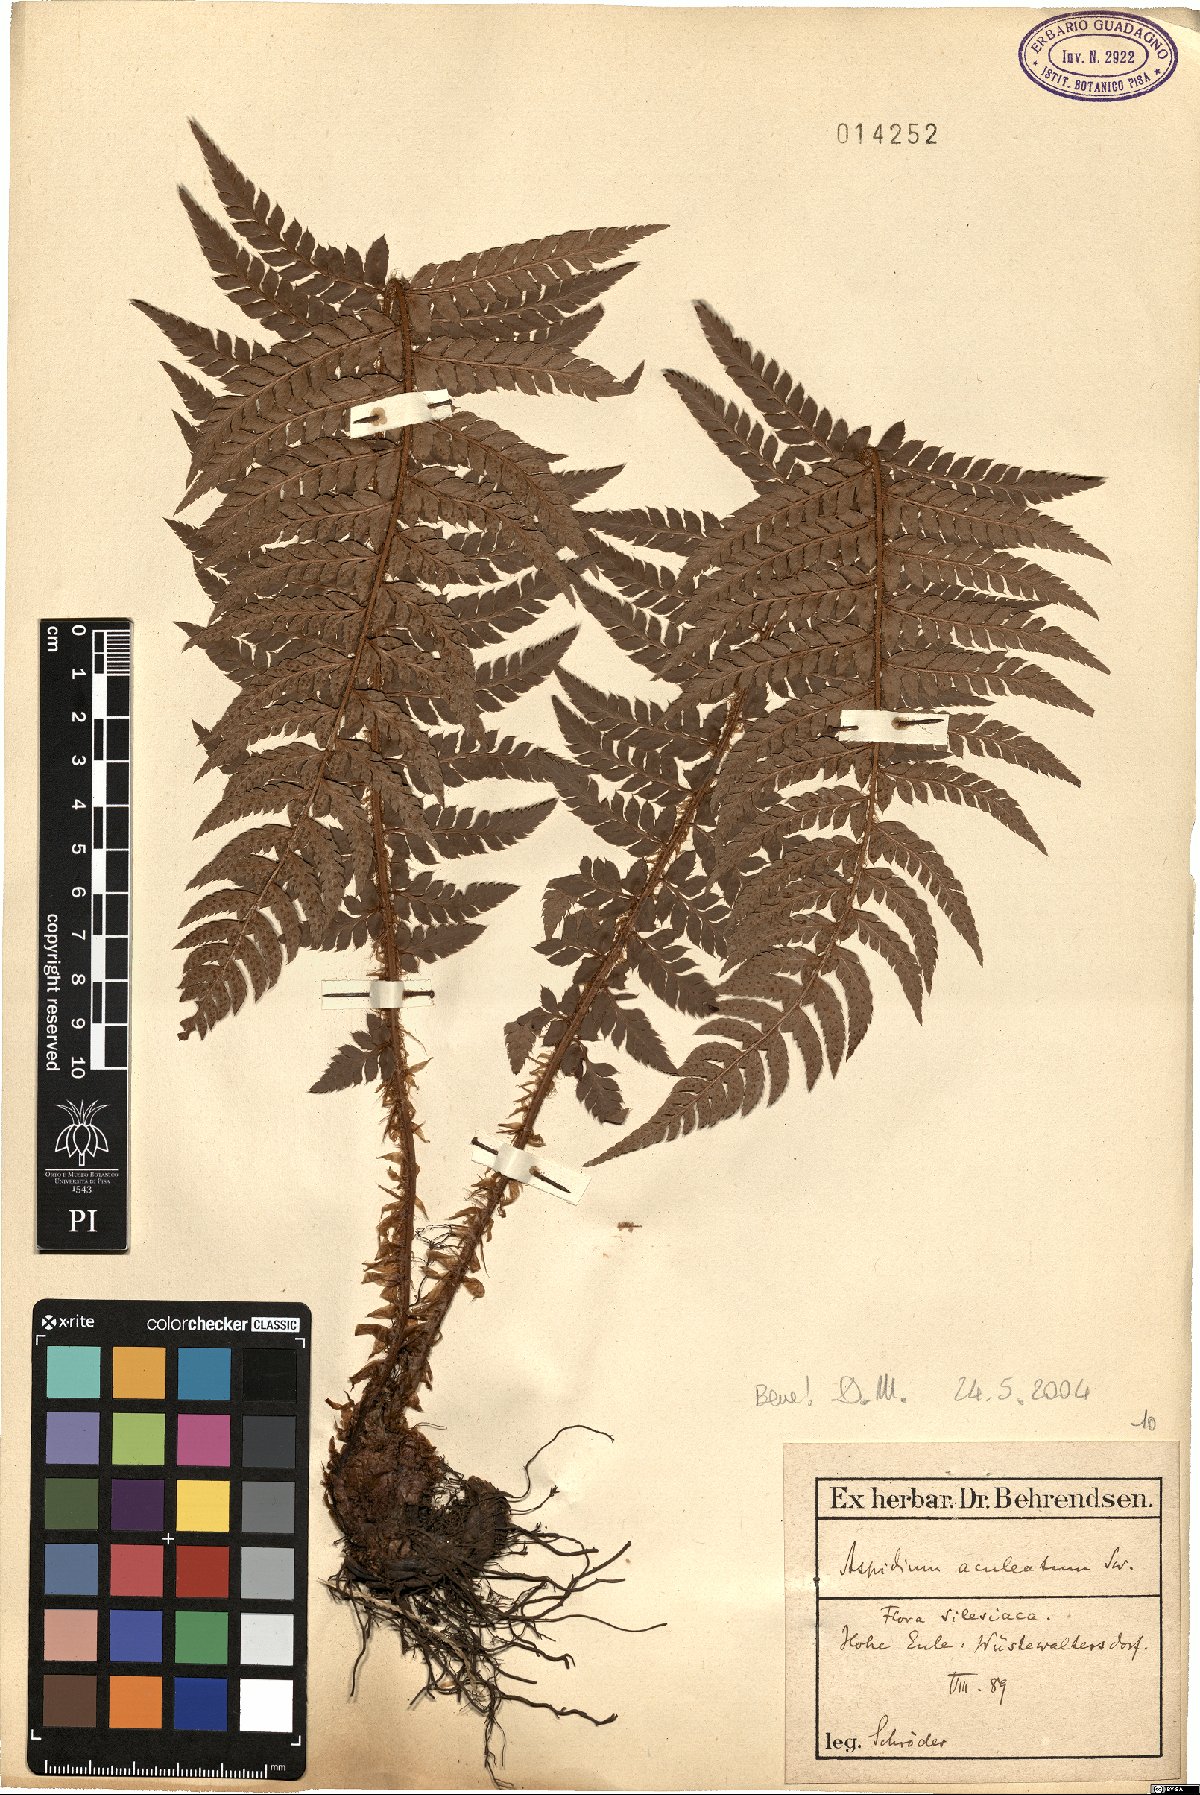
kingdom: Plantae
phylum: Tracheophyta
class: Polypodiopsida
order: Polypodiales
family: Dryopteridaceae
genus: Polystichum
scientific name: Polystichum aculeatum
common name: Hard shield-fern
